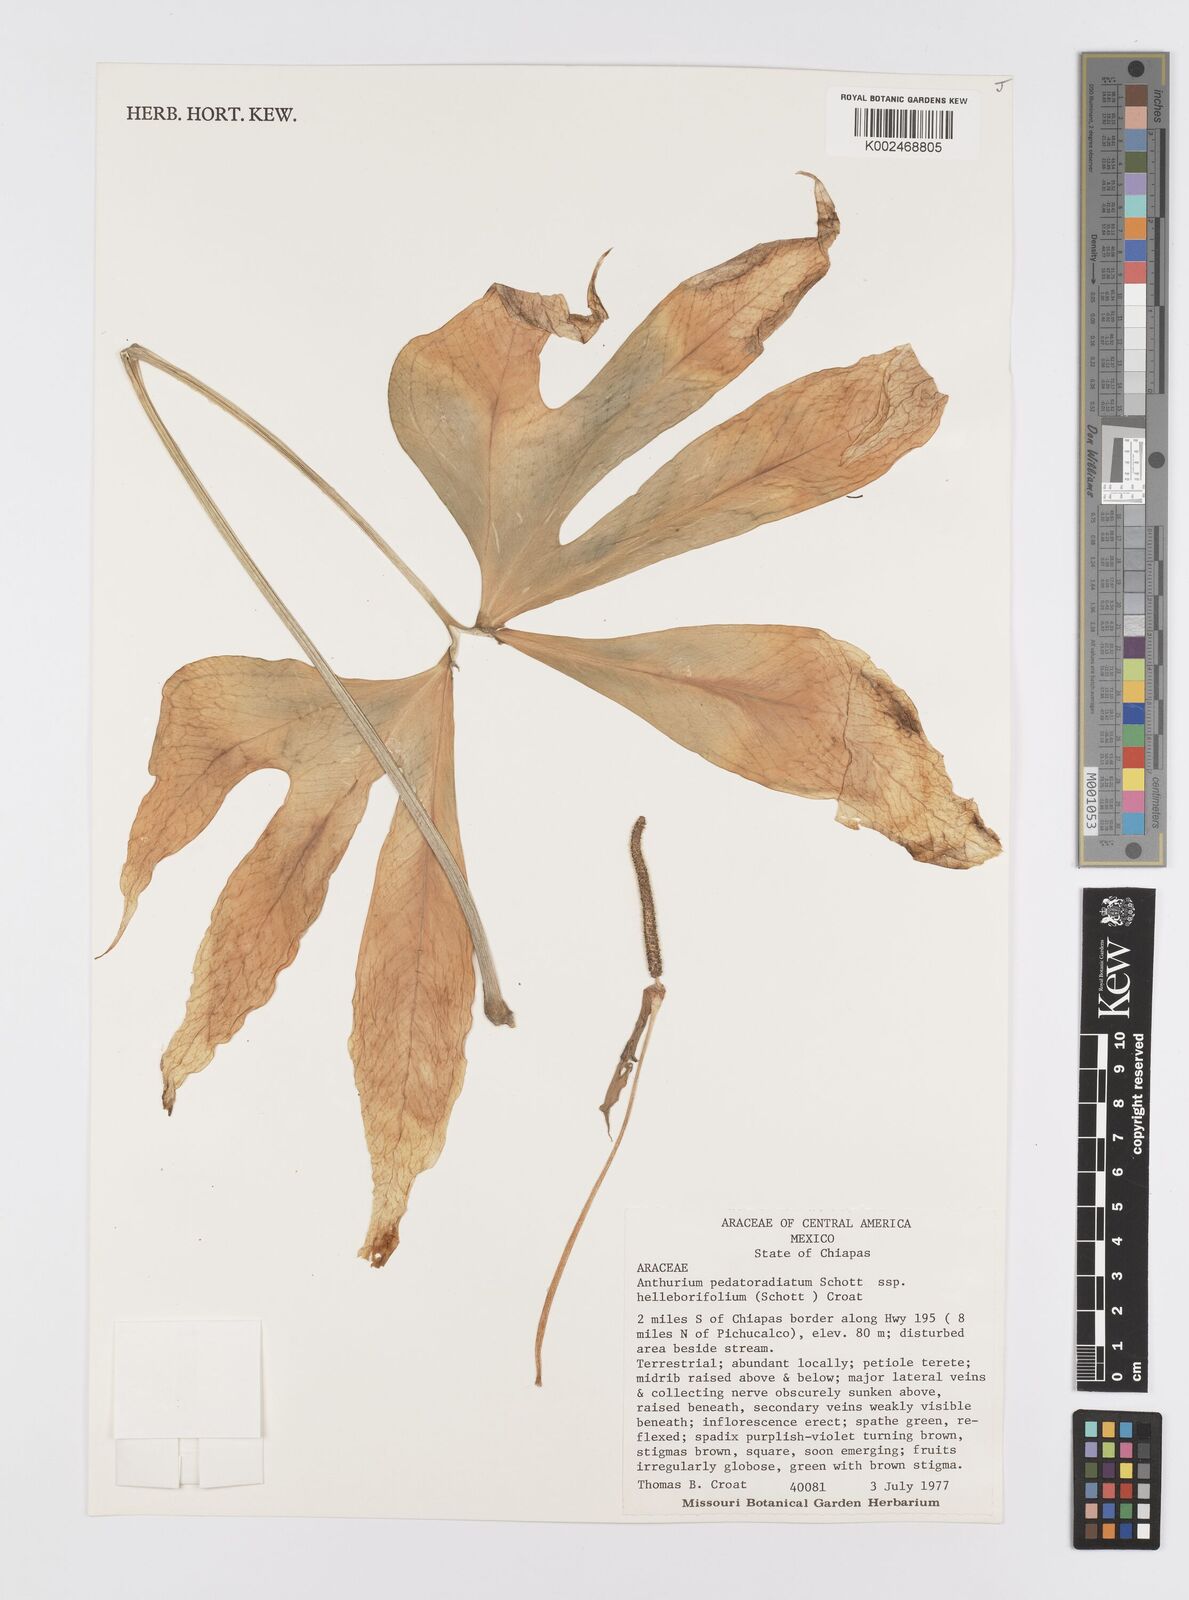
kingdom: Plantae
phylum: Tracheophyta
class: Liliopsida
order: Alismatales
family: Araceae
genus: Anthurium
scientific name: Anthurium pedatoradiatum
